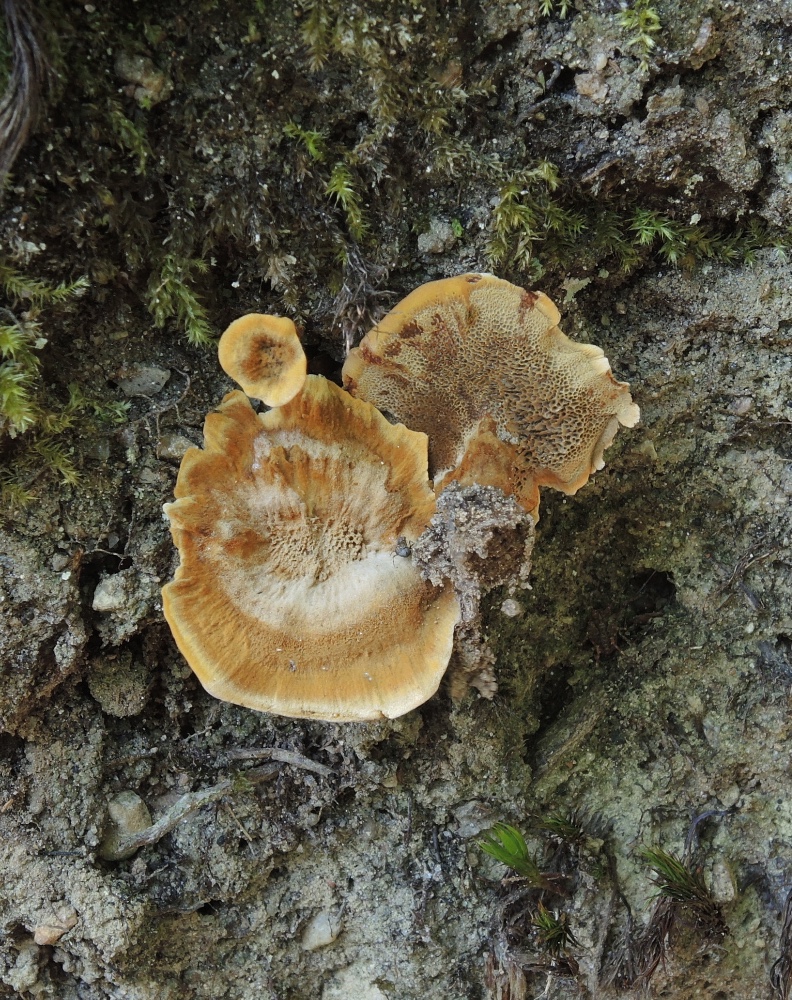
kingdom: Fungi
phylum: Basidiomycota
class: Agaricomycetes
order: Hymenochaetales
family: Hymenochaetaceae
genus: Coltricia
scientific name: Coltricia perennis
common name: almindelig sandporesvamp
